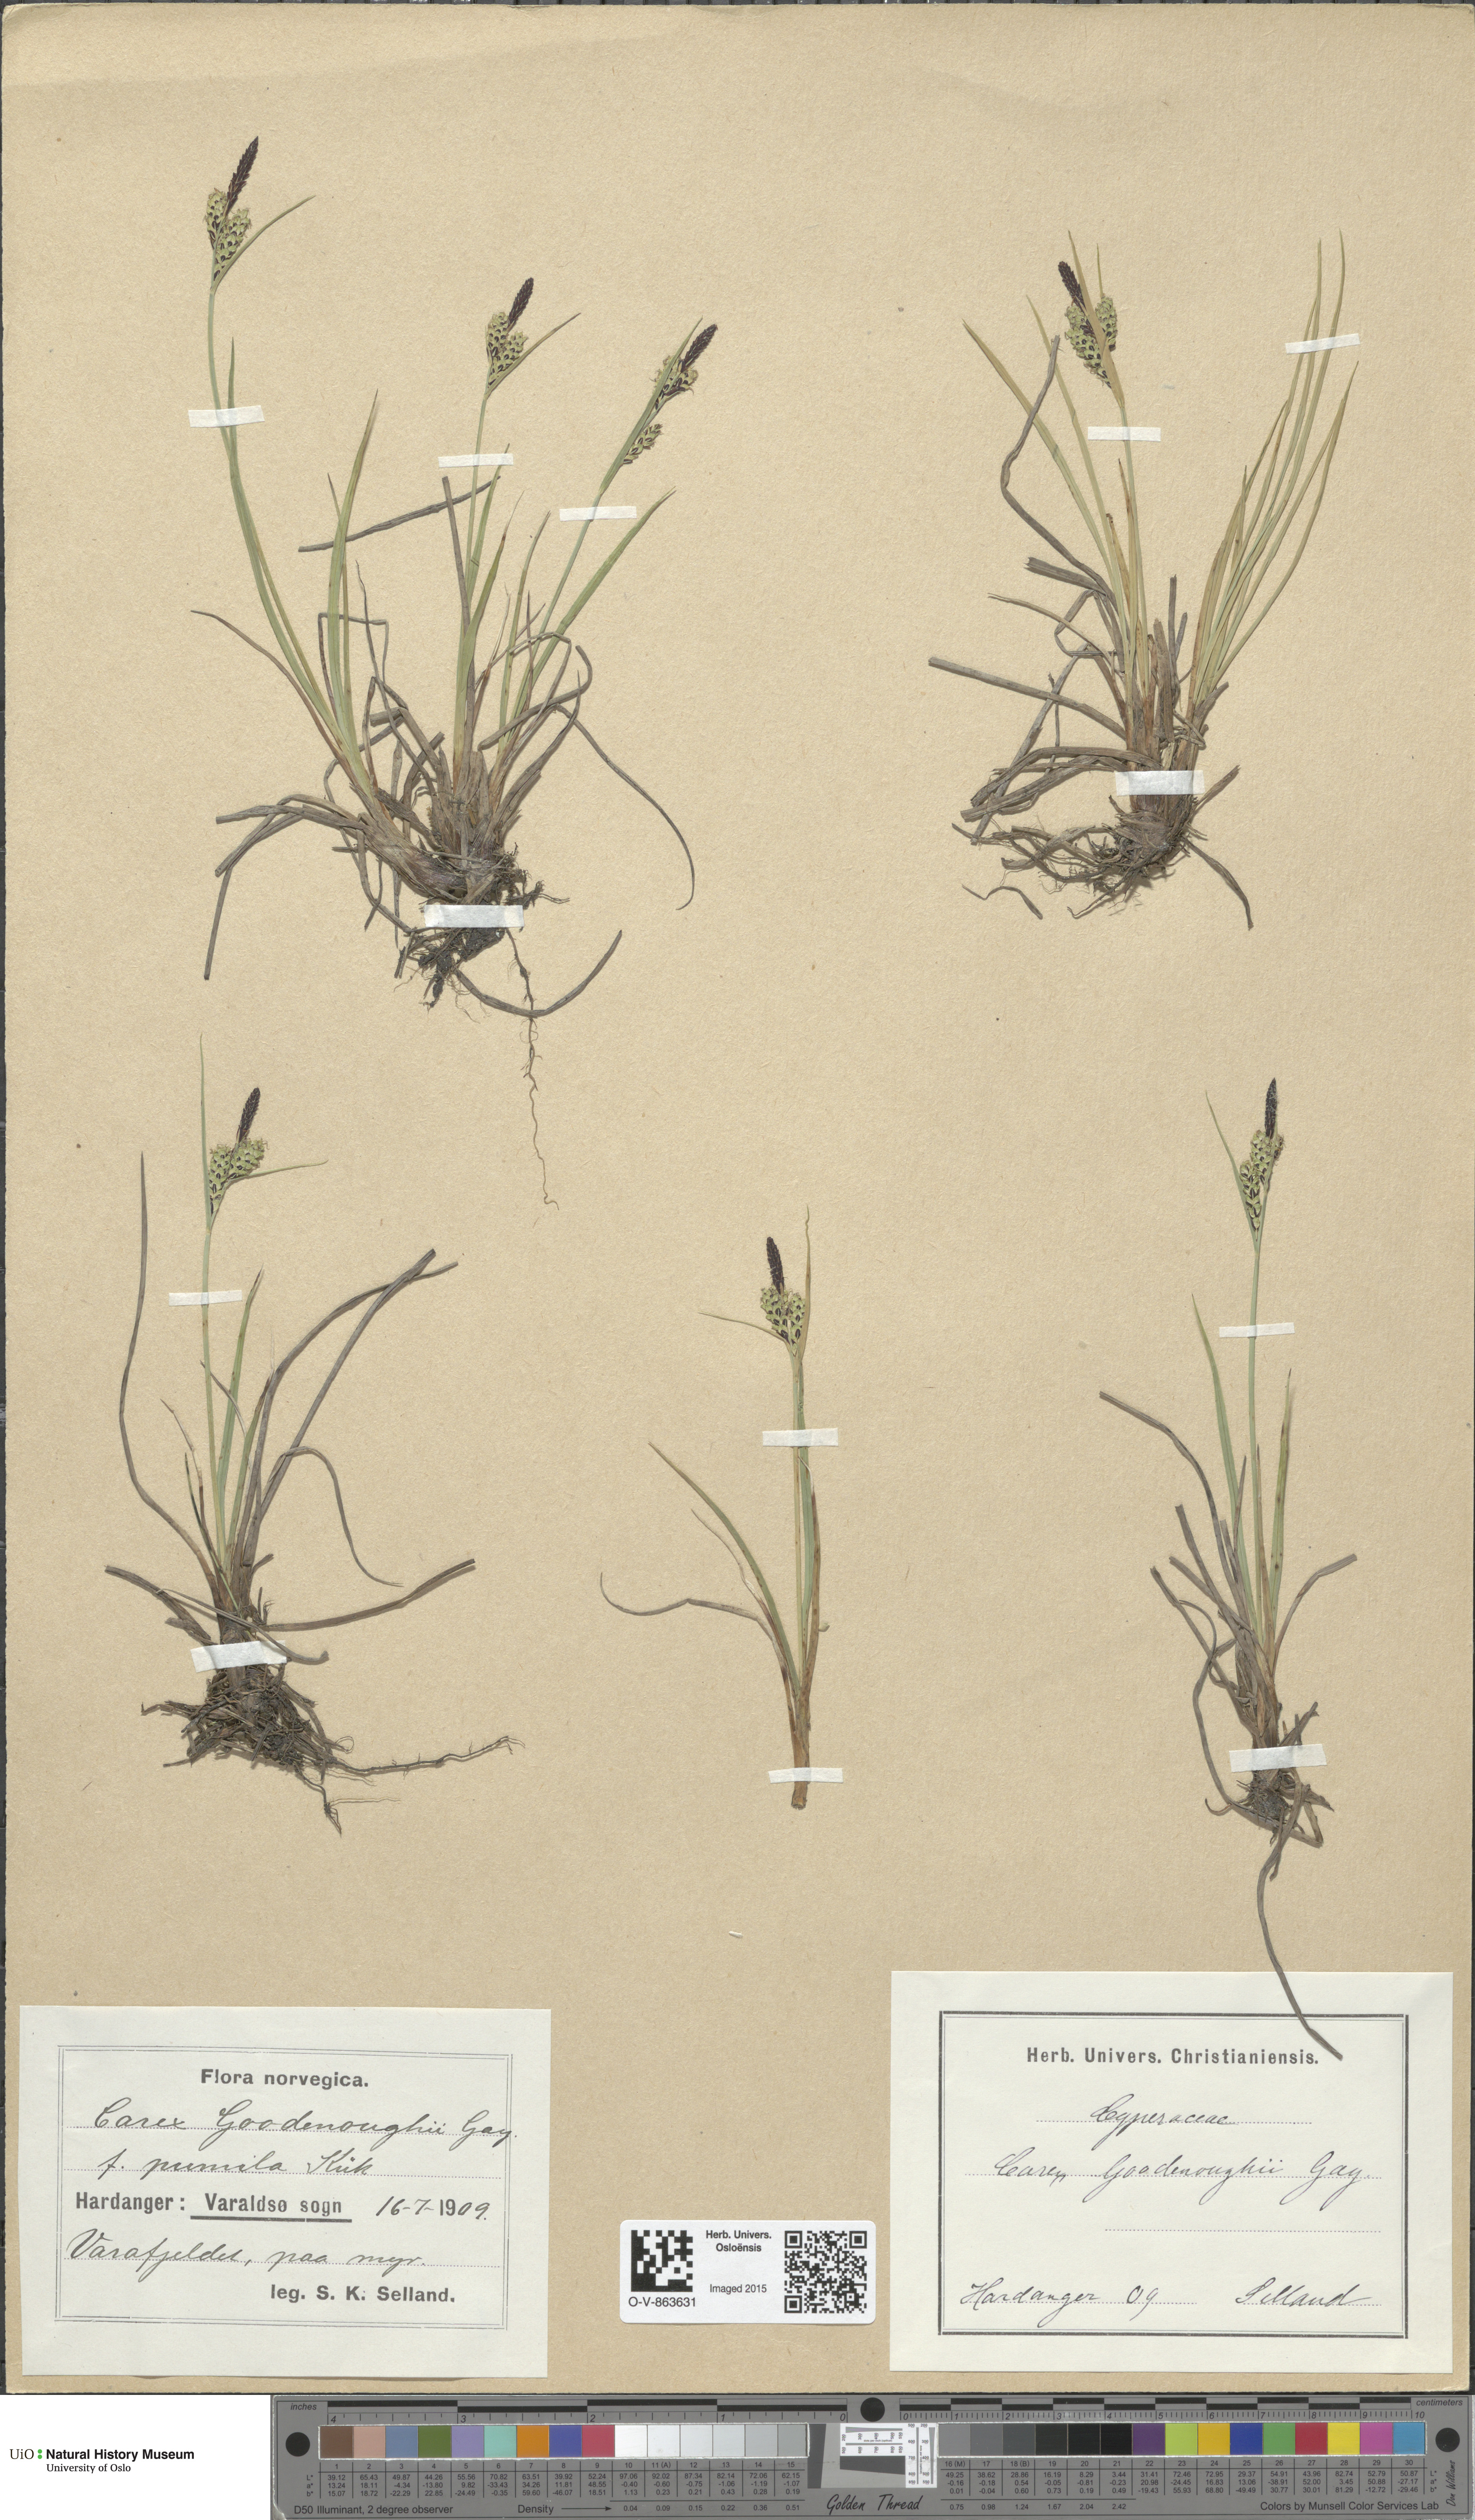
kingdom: Plantae
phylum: Tracheophyta
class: Liliopsida
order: Poales
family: Cyperaceae
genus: Carex
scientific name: Carex nigra
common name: Common sedge
